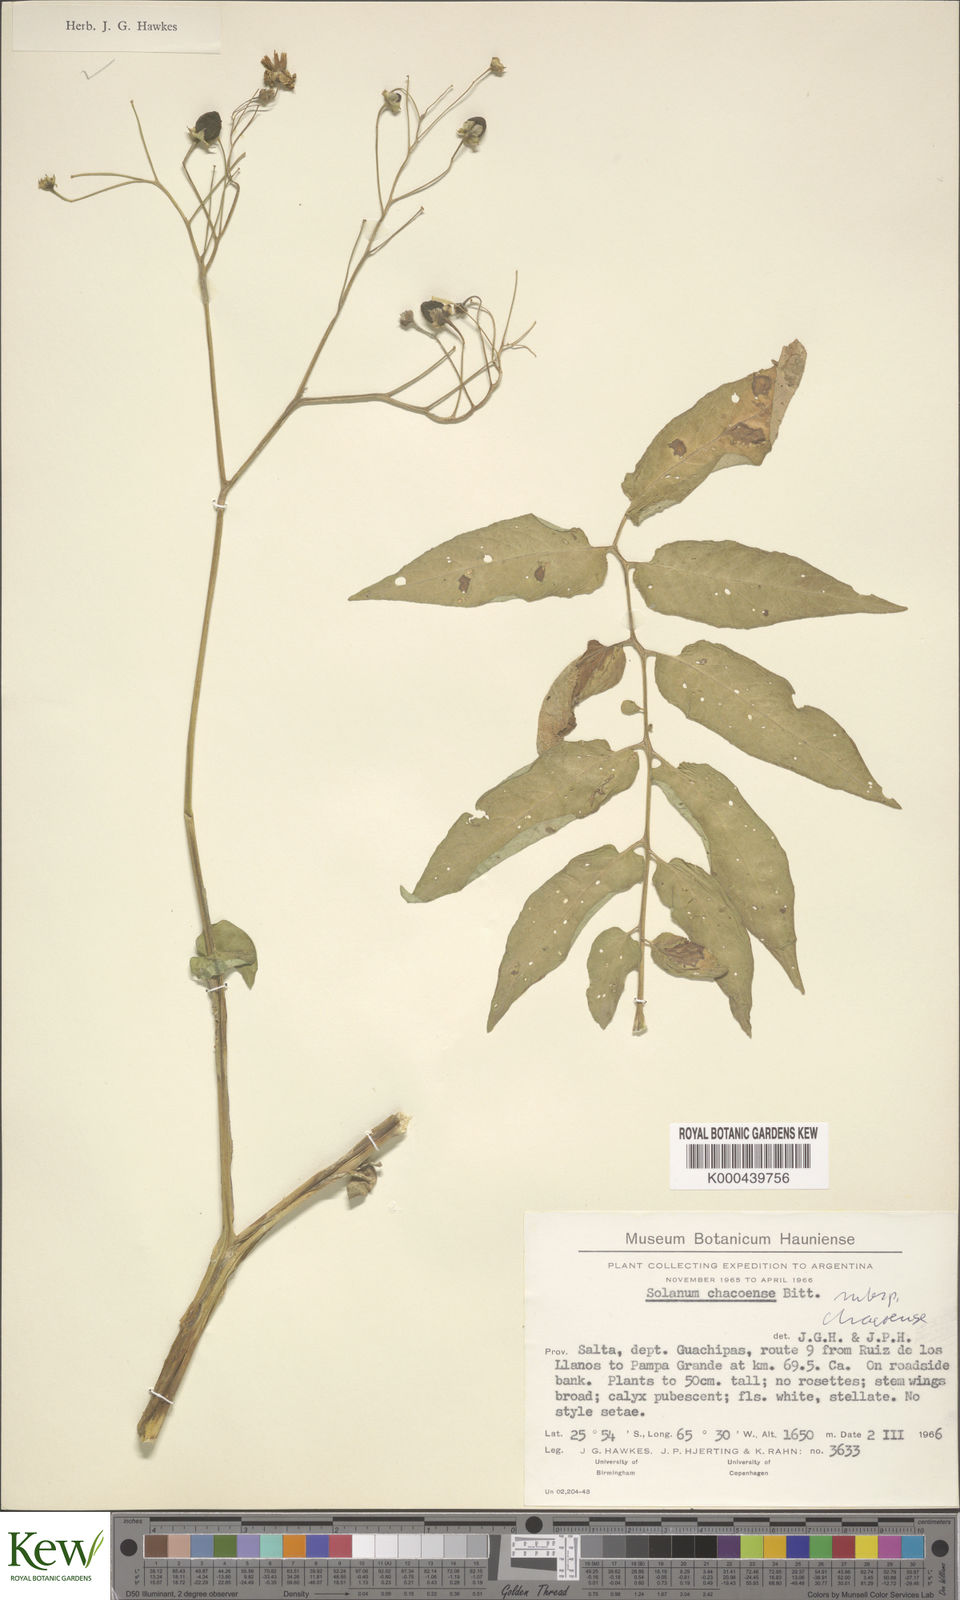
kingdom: Plantae
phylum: Tracheophyta
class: Magnoliopsida
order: Solanales
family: Solanaceae
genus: Solanum
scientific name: Solanum chacoense
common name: Chaco potato
